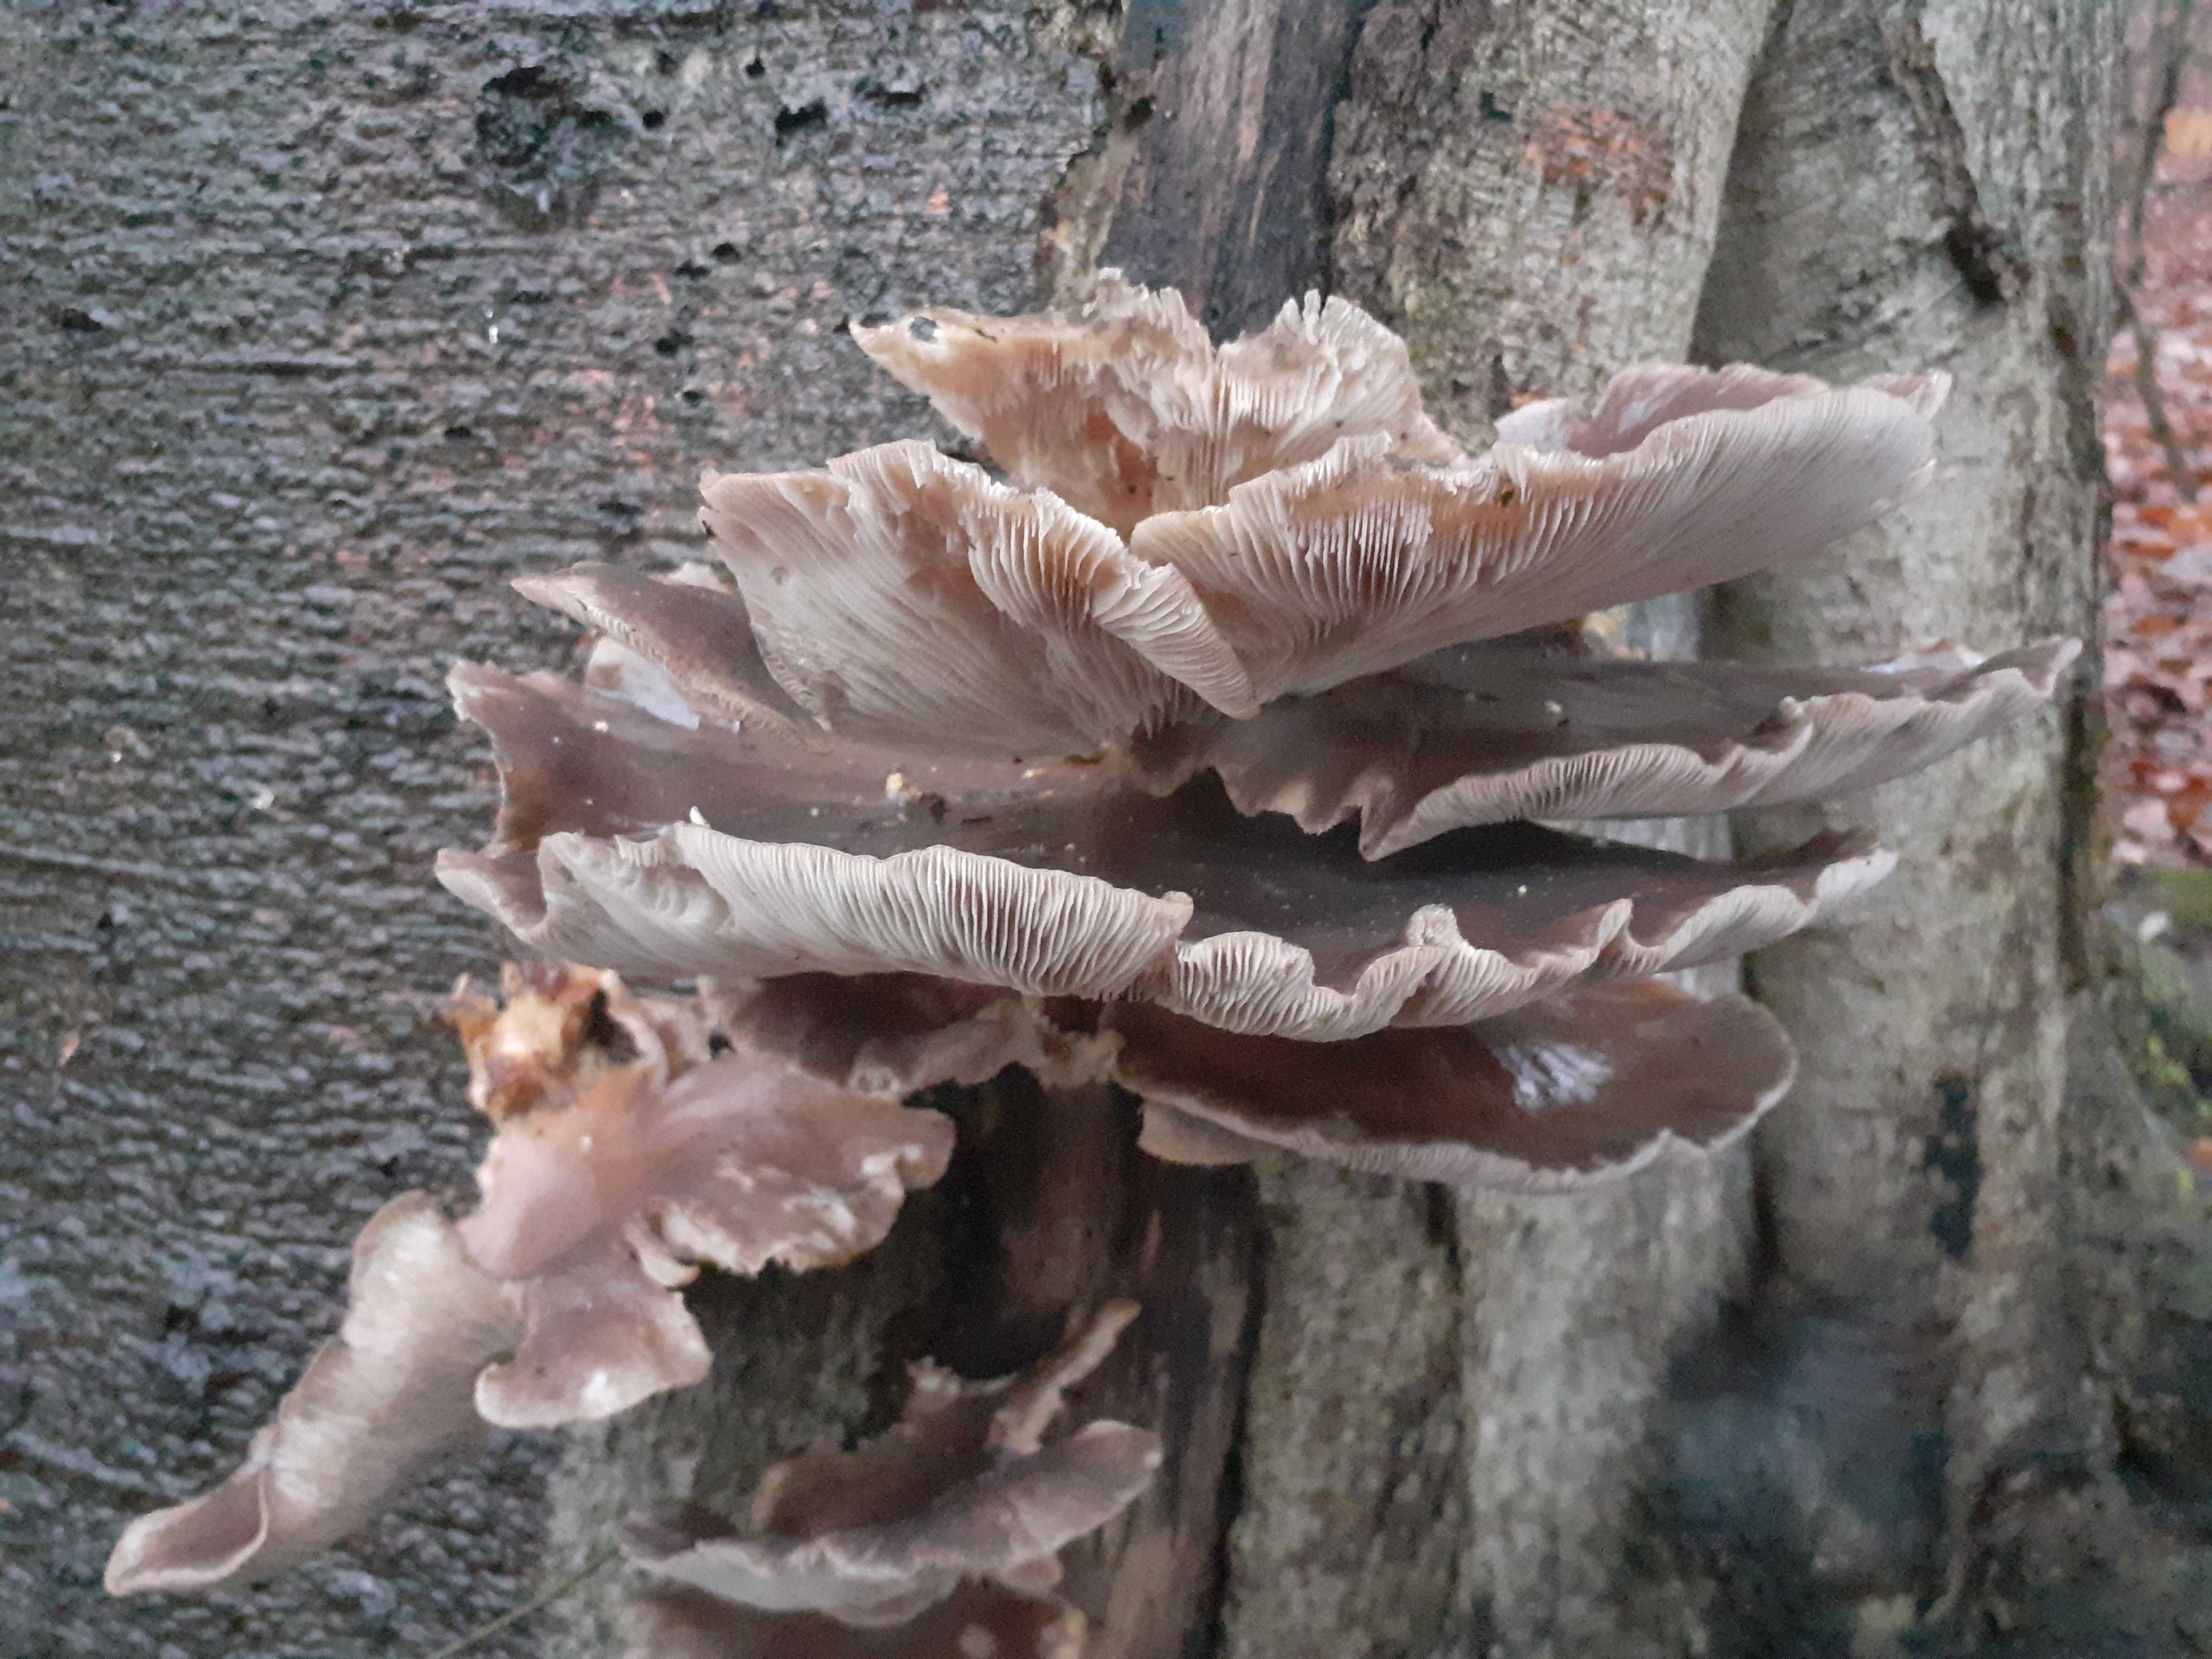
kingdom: Fungi
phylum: Basidiomycota
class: Agaricomycetes
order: Agaricales
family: Pleurotaceae
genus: Pleurotus
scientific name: Pleurotus ostreatus
